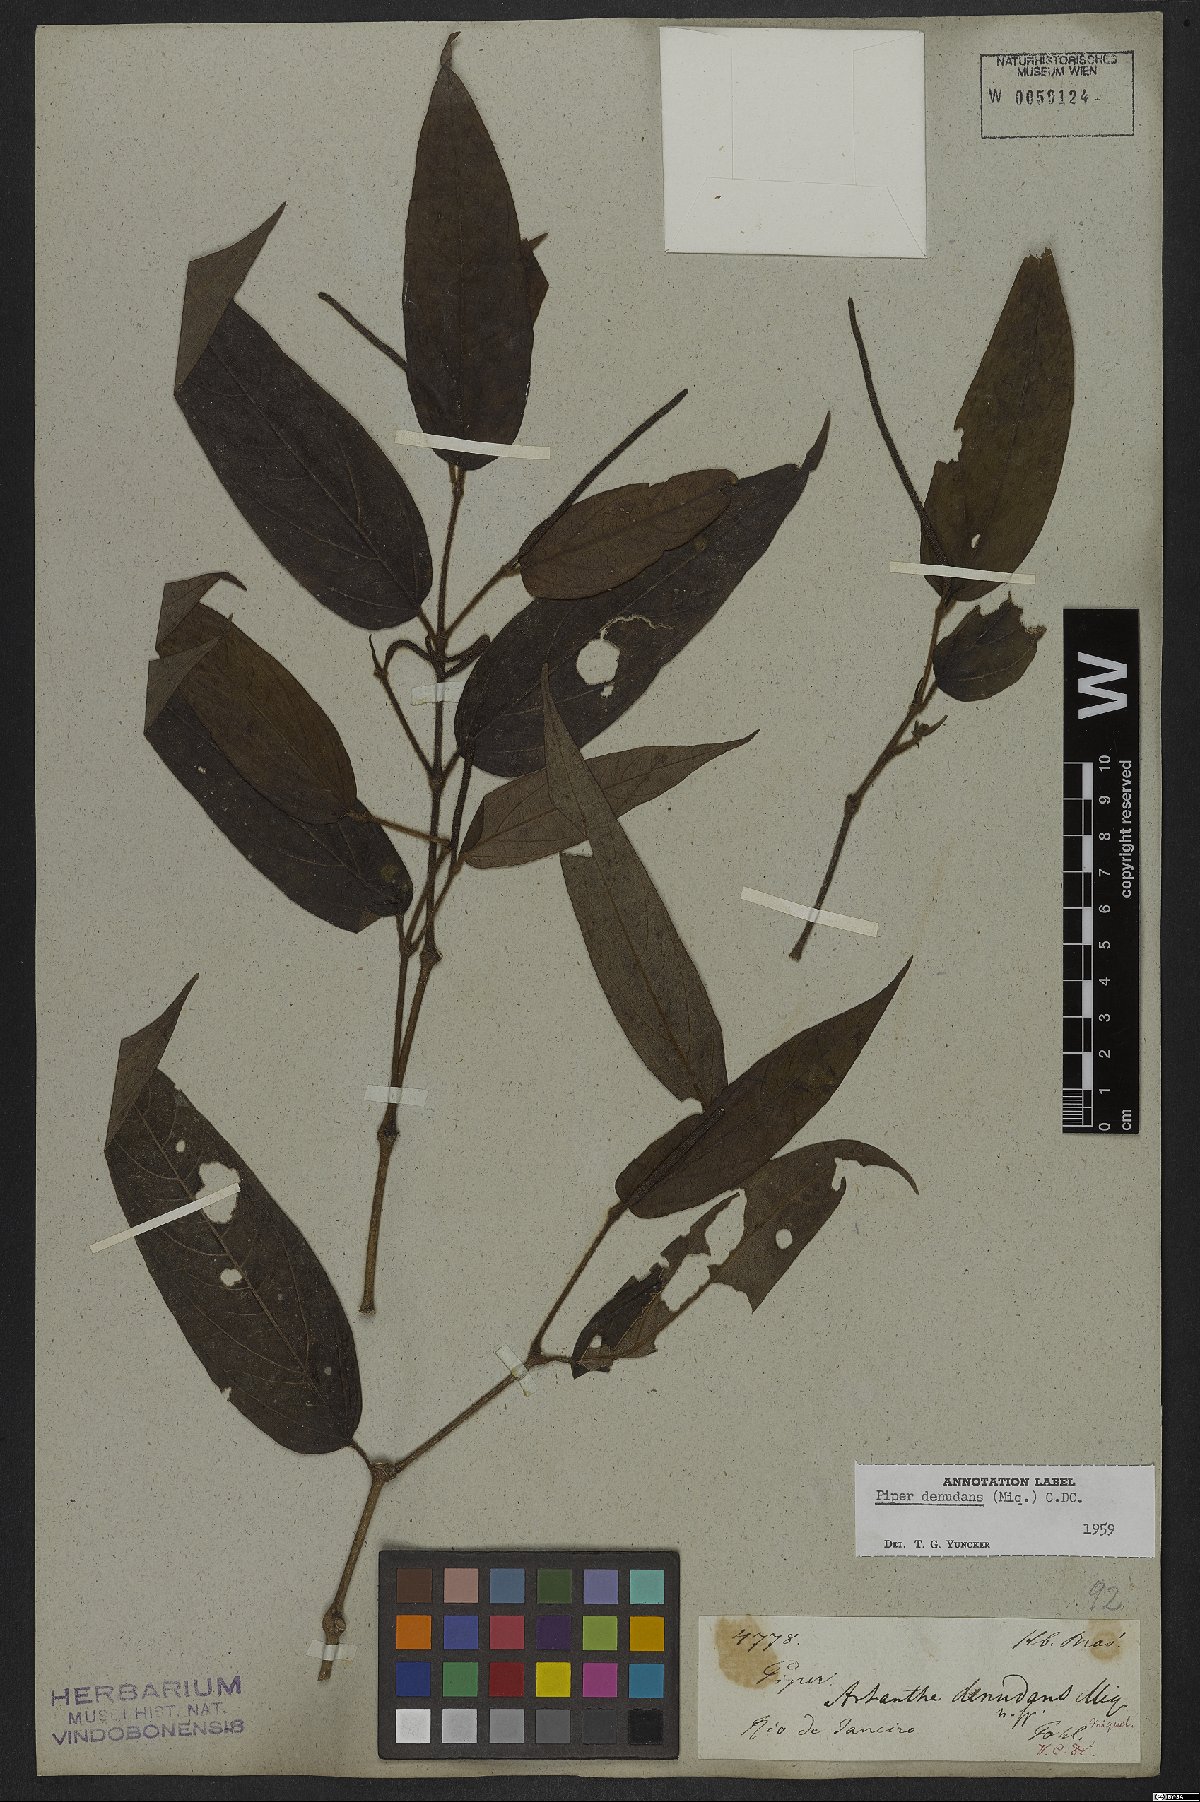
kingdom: Plantae
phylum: Tracheophyta
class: Magnoliopsida
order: Piperales
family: Piperaceae
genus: Piper
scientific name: Piper lepturum
